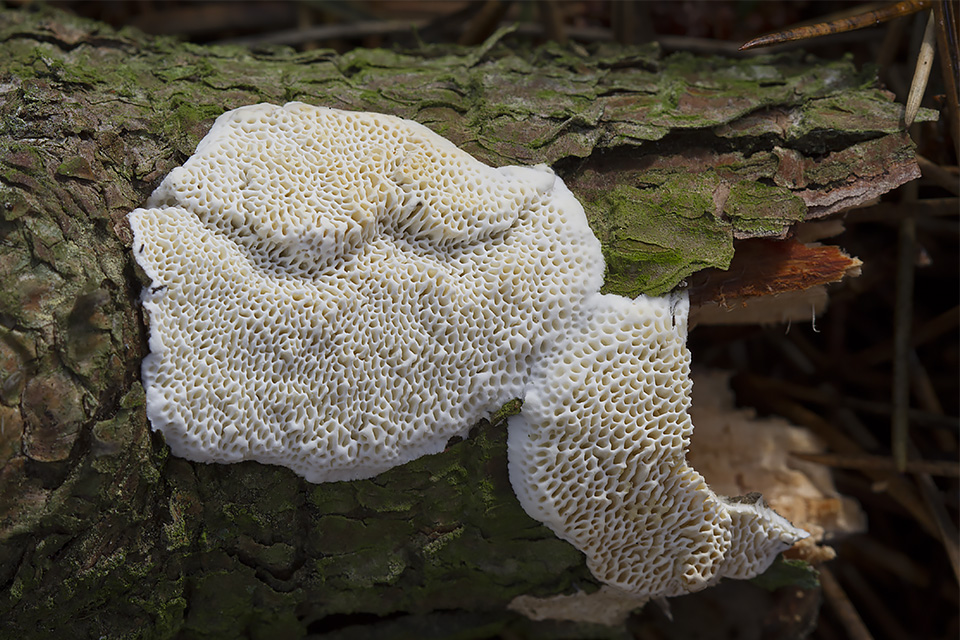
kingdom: Fungi
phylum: Basidiomycota
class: Agaricomycetes
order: Polyporales
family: Fomitopsidaceae
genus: Fomitopsis
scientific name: Fomitopsis
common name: fyrre-skiveporesvamp
